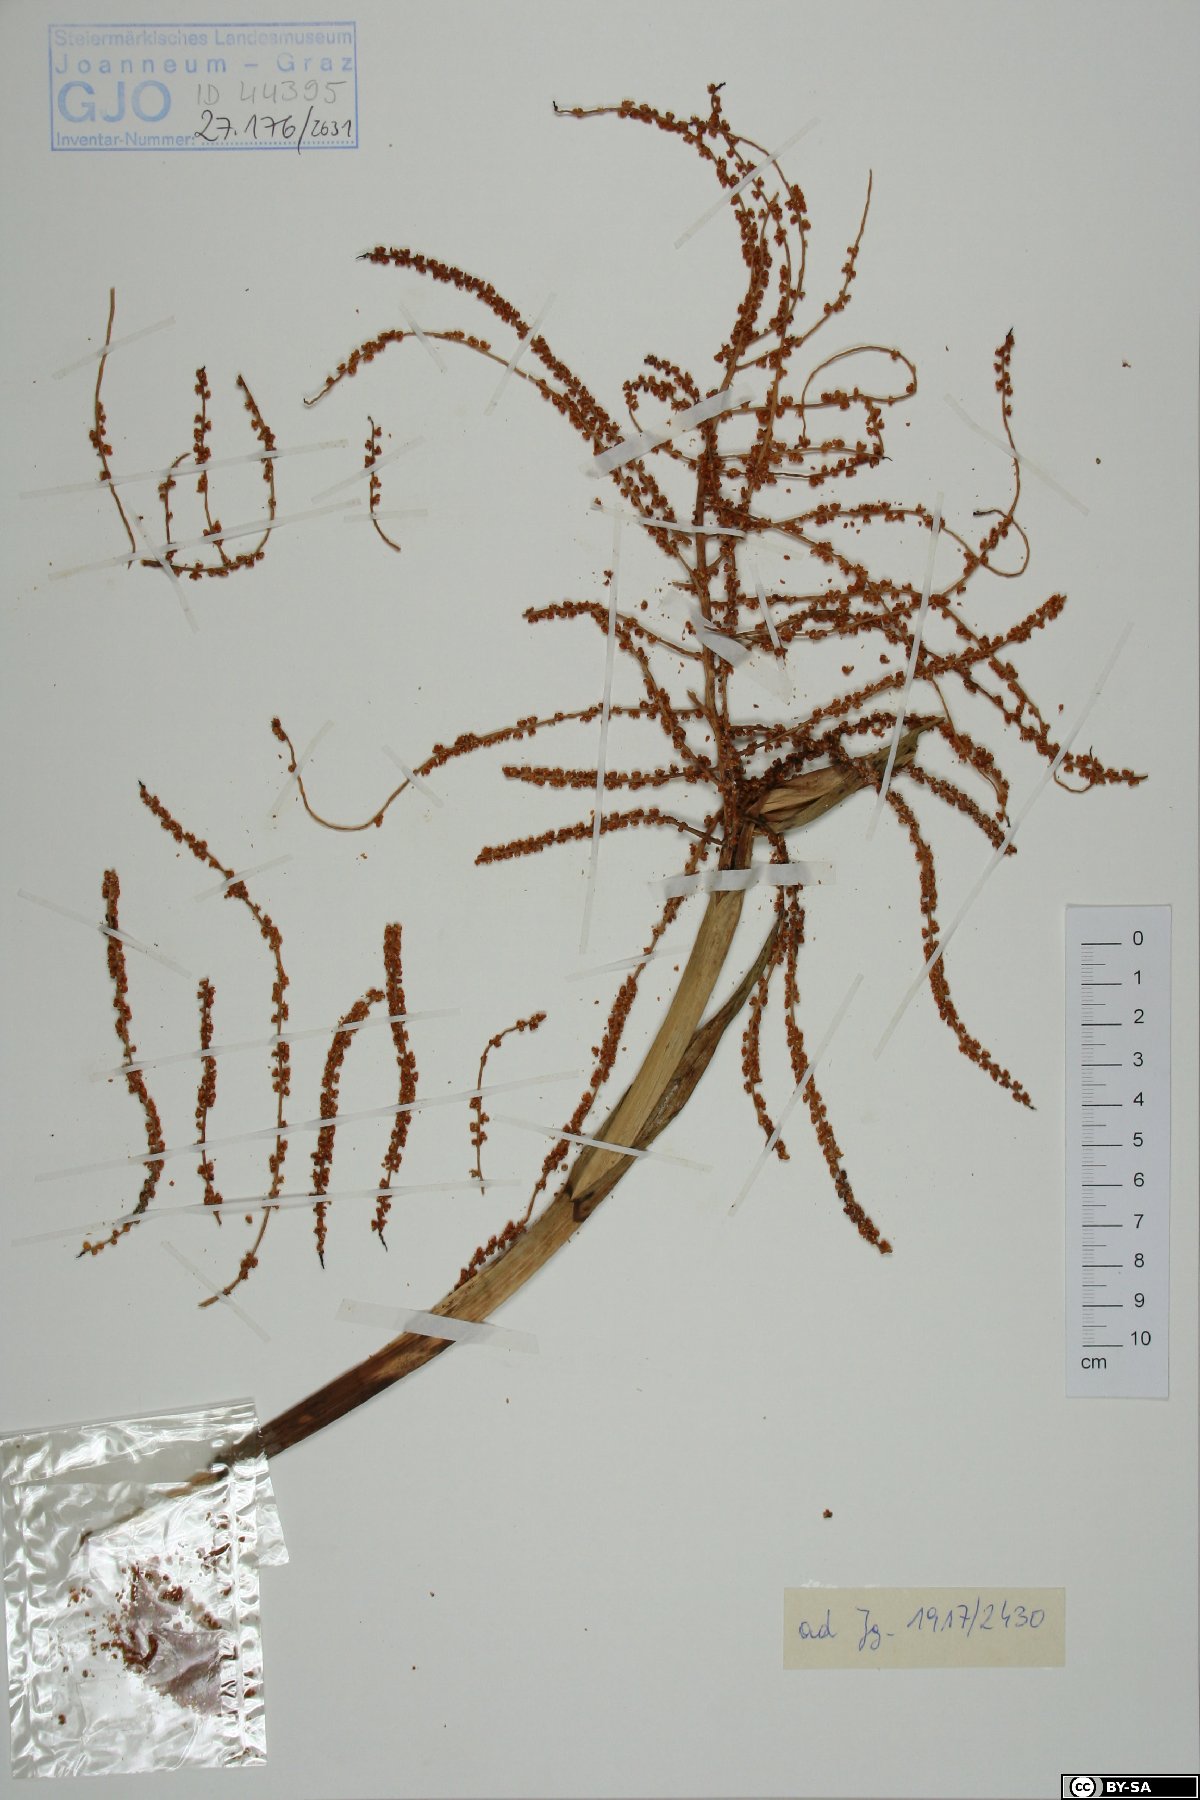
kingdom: Plantae
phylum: Tracheophyta
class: Liliopsida
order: Arecales
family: Arecaceae
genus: Chamaedorea
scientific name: Chamaedorea elatior
